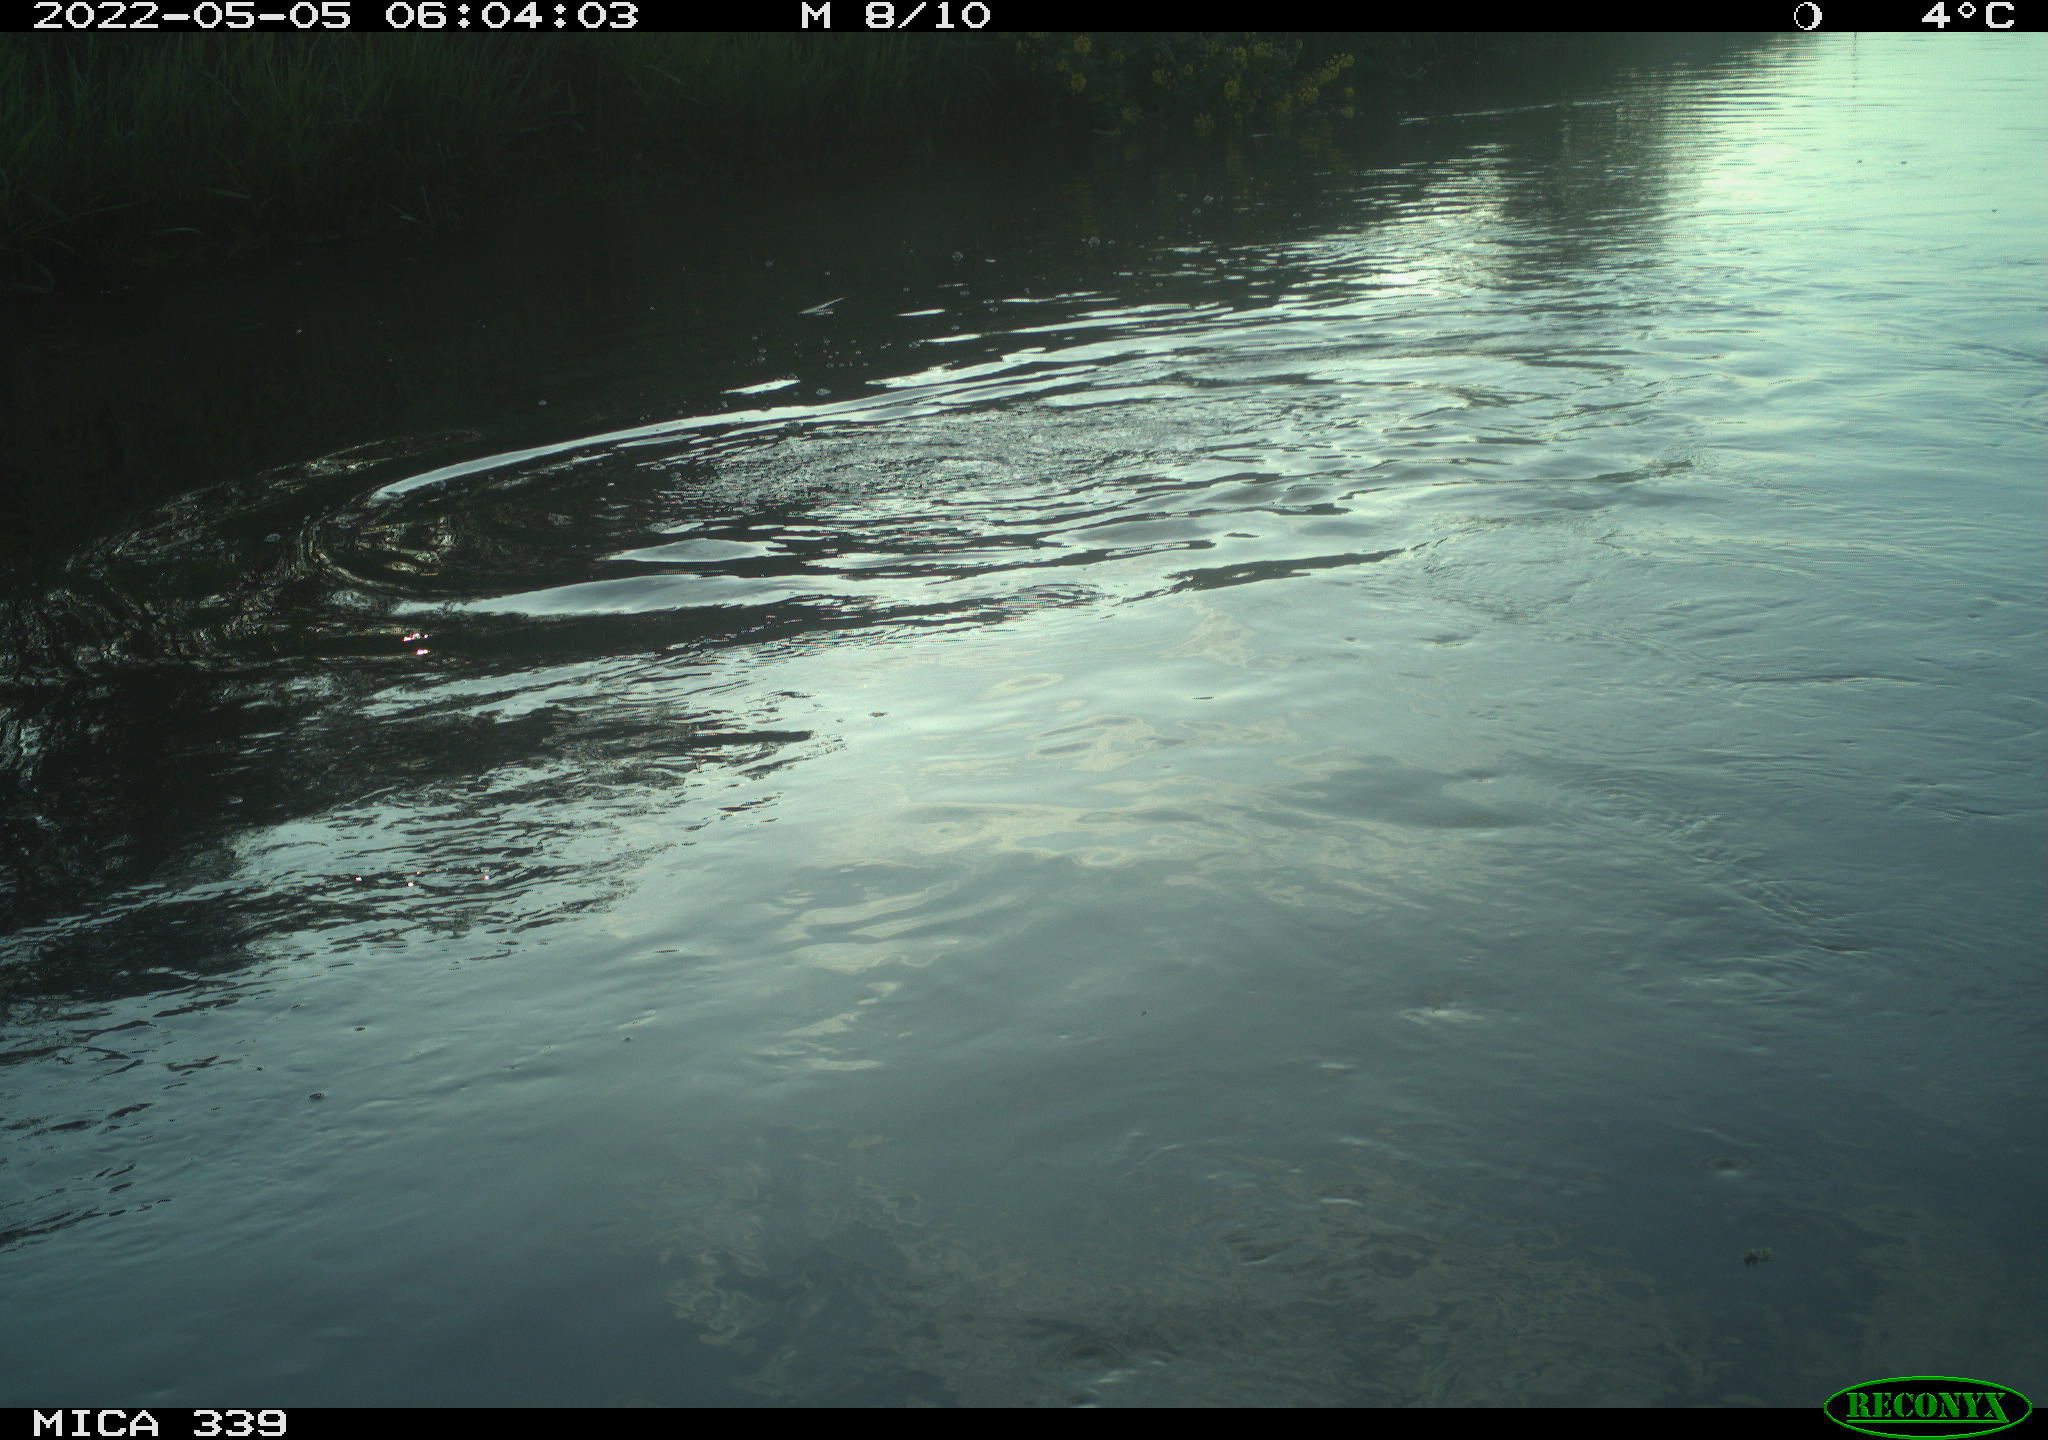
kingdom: Animalia
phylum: Chordata
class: Aves
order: Suliformes
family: Phalacrocoracidae
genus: Phalacrocorax
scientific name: Phalacrocorax carbo
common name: Great cormorant
